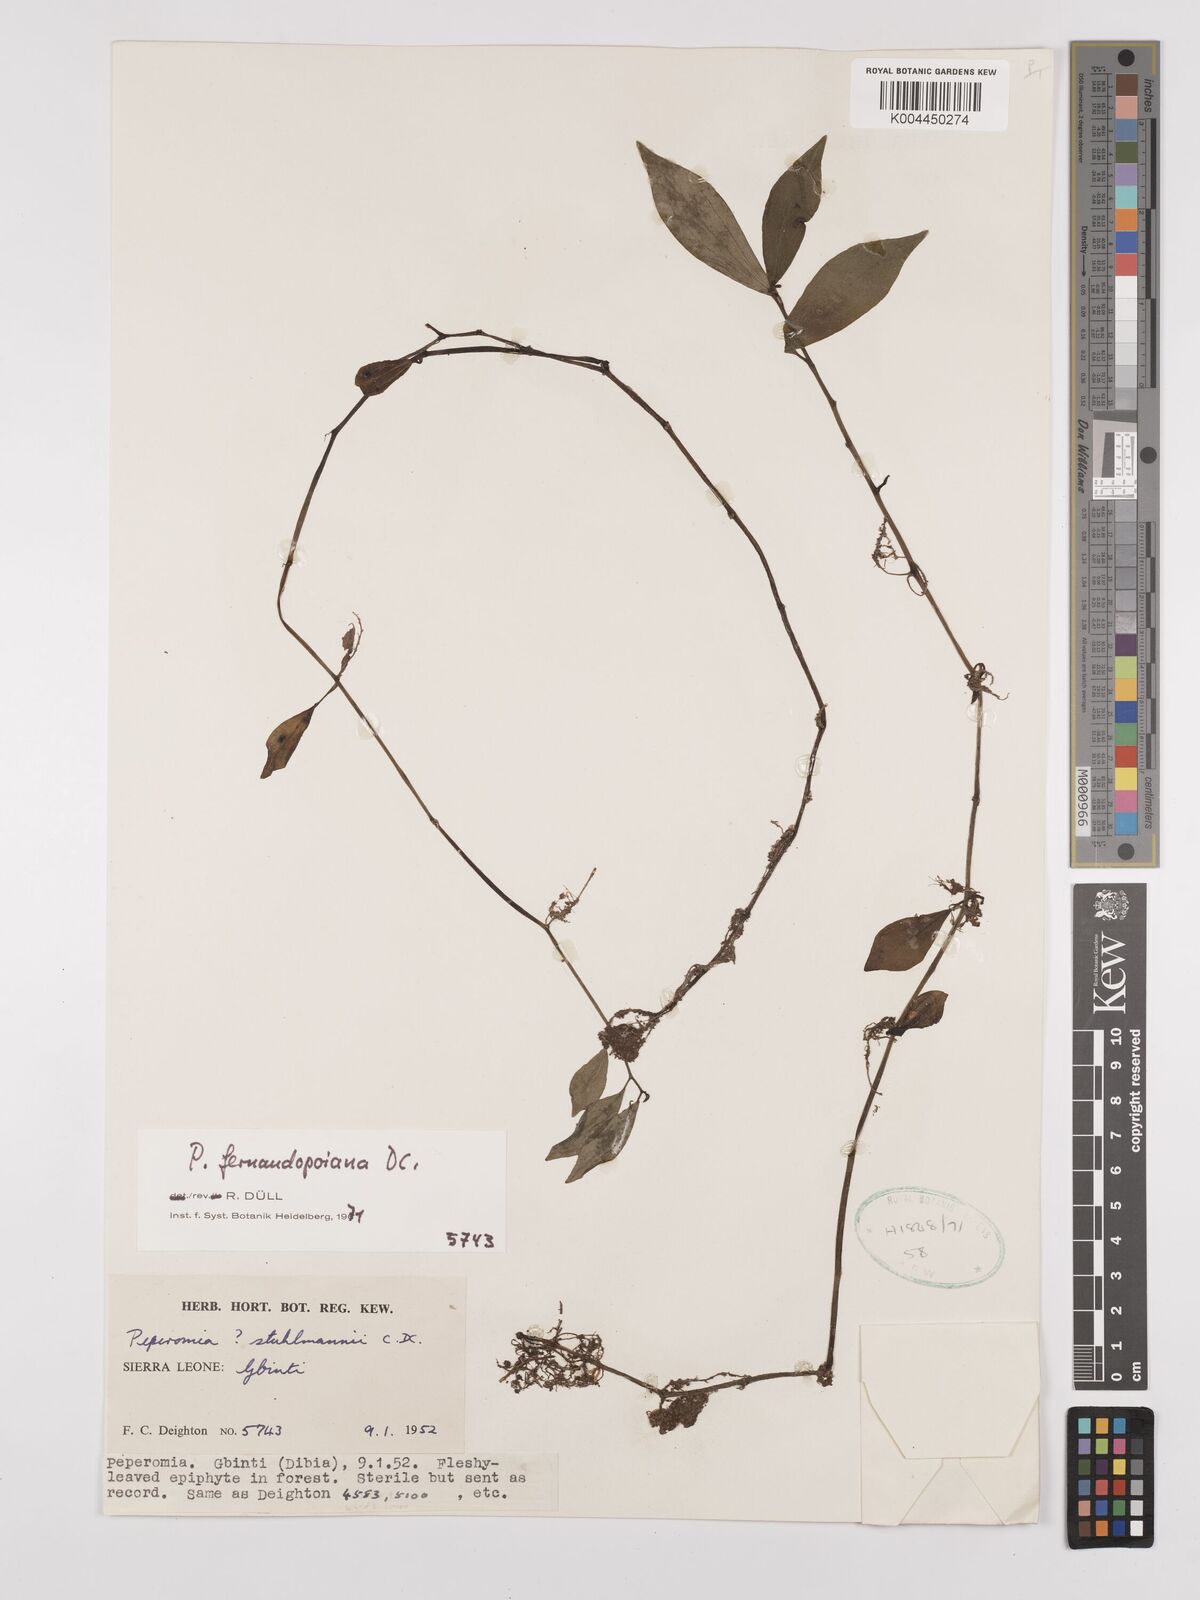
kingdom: Plantae
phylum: Tracheophyta
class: Magnoliopsida
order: Piperales
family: Piperaceae
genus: Peperomia
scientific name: Peperomia fernandeziana
